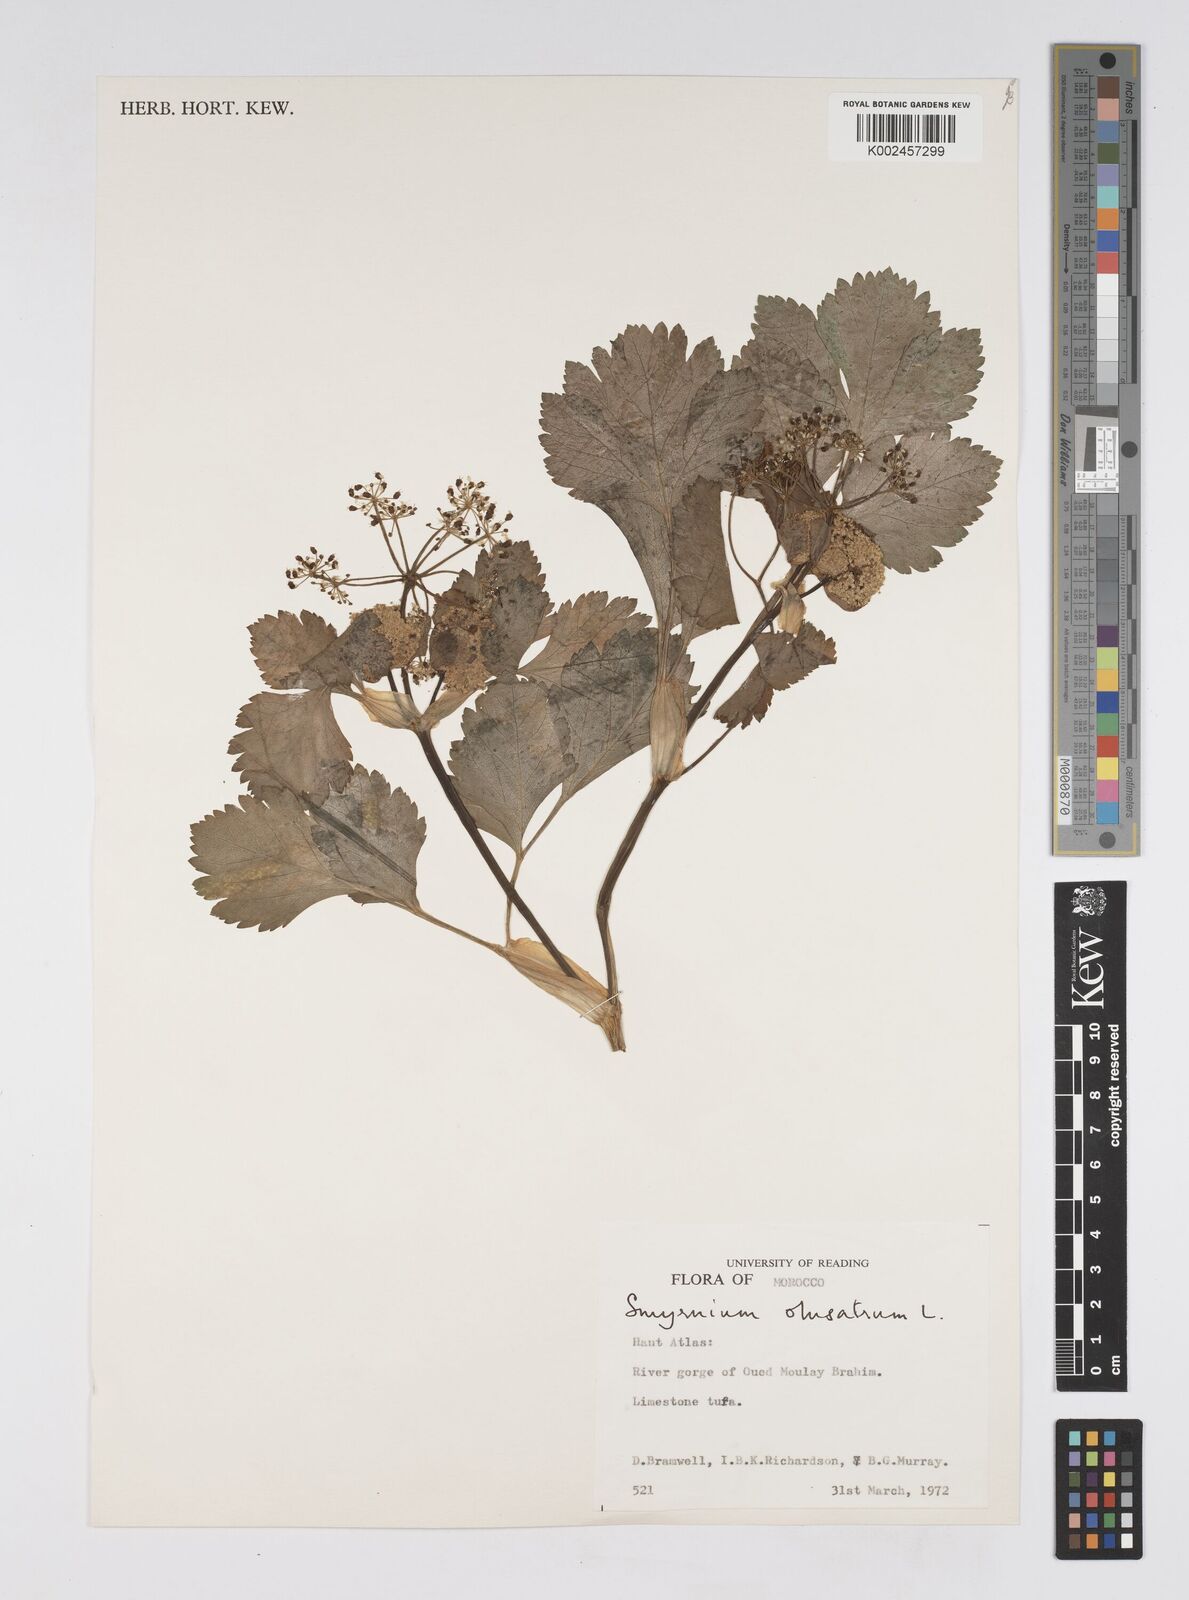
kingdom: Plantae
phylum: Tracheophyta
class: Magnoliopsida
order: Apiales
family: Apiaceae
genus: Smyrnium
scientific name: Smyrnium olusatrum
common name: Alexanders
